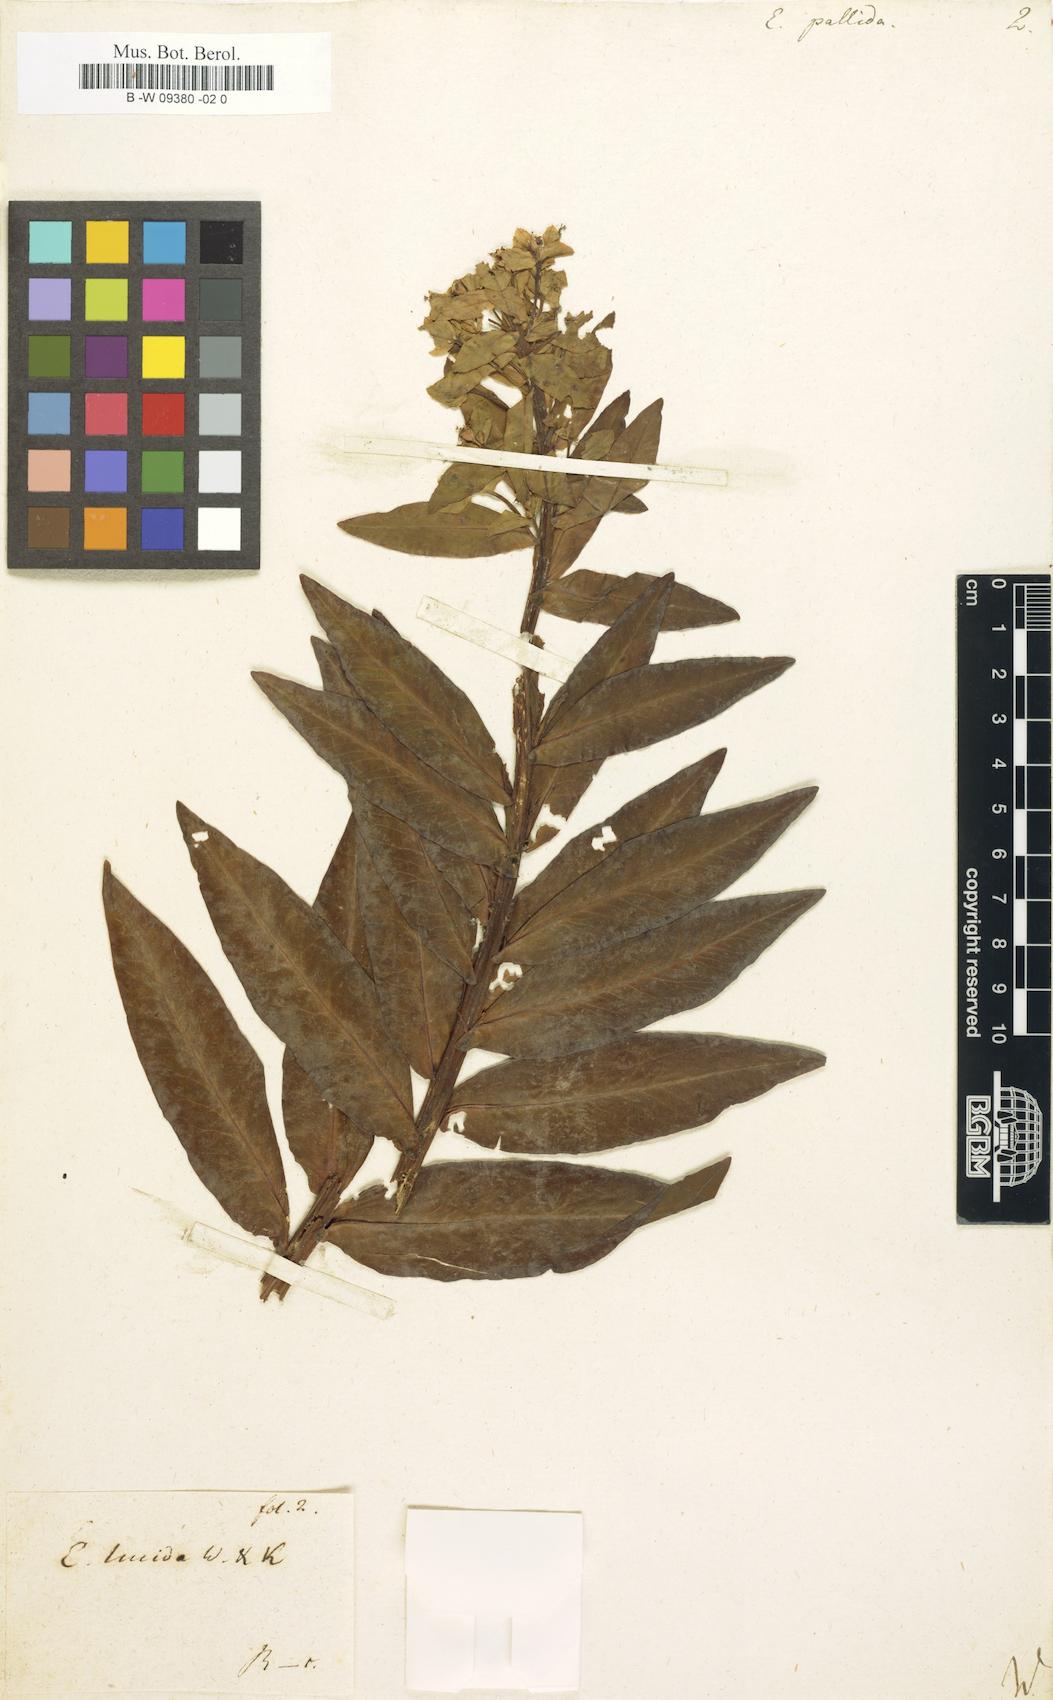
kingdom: Plantae
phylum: Tracheophyta
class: Magnoliopsida
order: Malpighiales
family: Euphorbiaceae
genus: Euphorbia
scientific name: Euphorbia salicifolia
